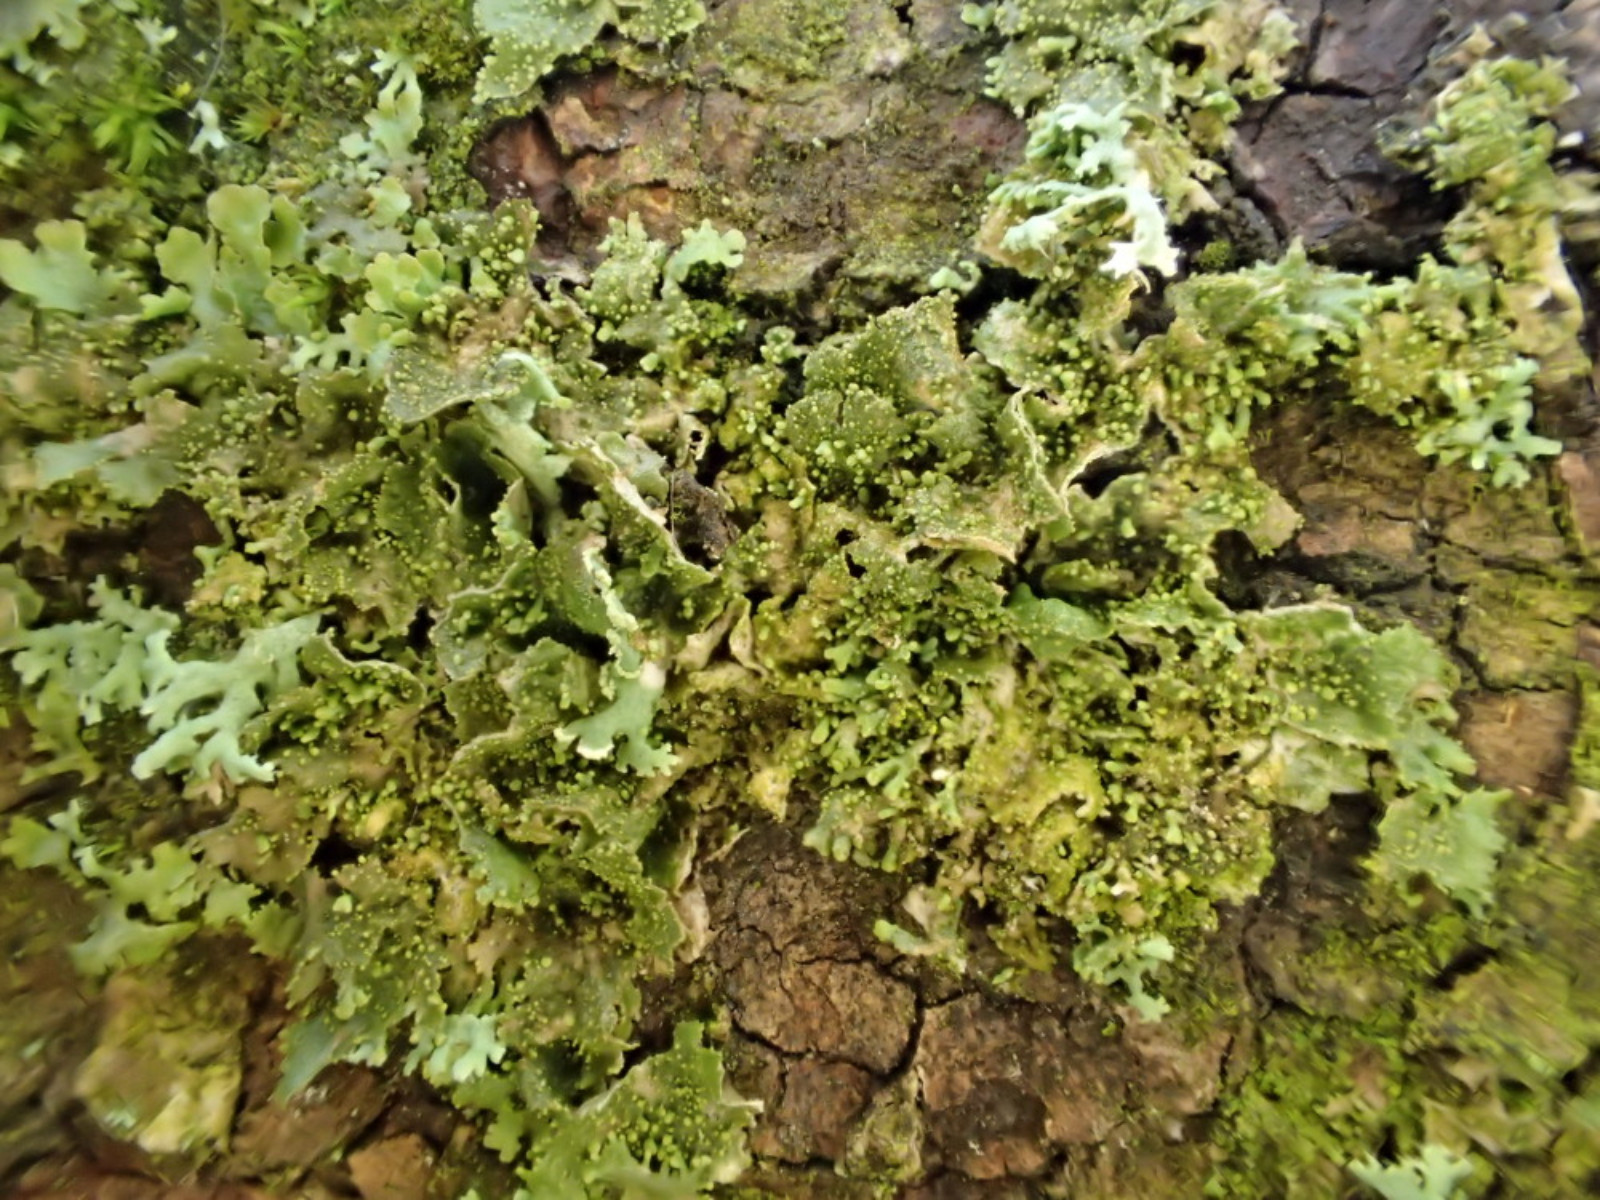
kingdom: Fungi
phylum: Ascomycota
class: Lecanoromycetes
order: Lecanorales
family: Parmeliaceae
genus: Melanohalea
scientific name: Melanohalea exasperatula
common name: kølle-skållav
